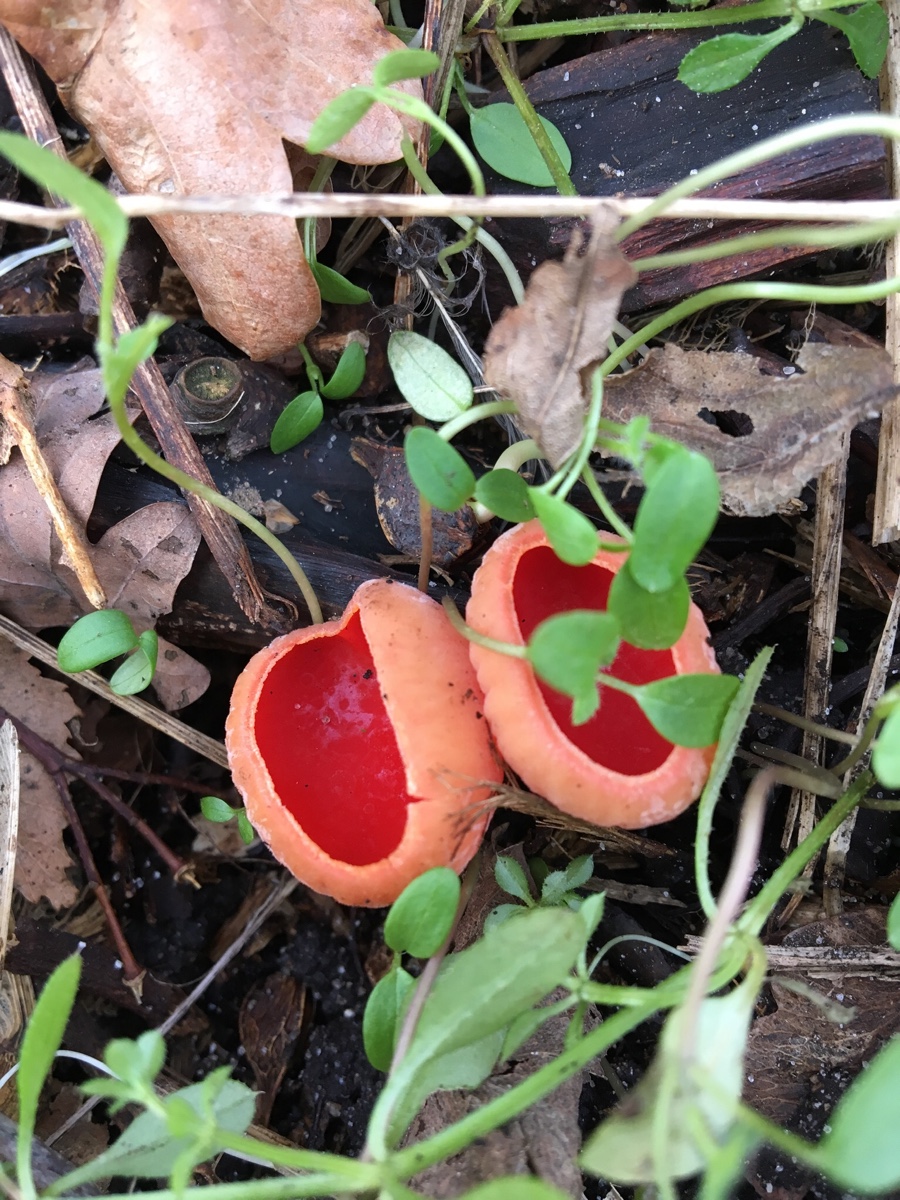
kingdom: Fungi
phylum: Ascomycota
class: Pezizomycetes
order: Pezizales
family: Sarcoscyphaceae
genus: Sarcoscypha
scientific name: Sarcoscypha austriaca
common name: krølhåret pragtbæger
